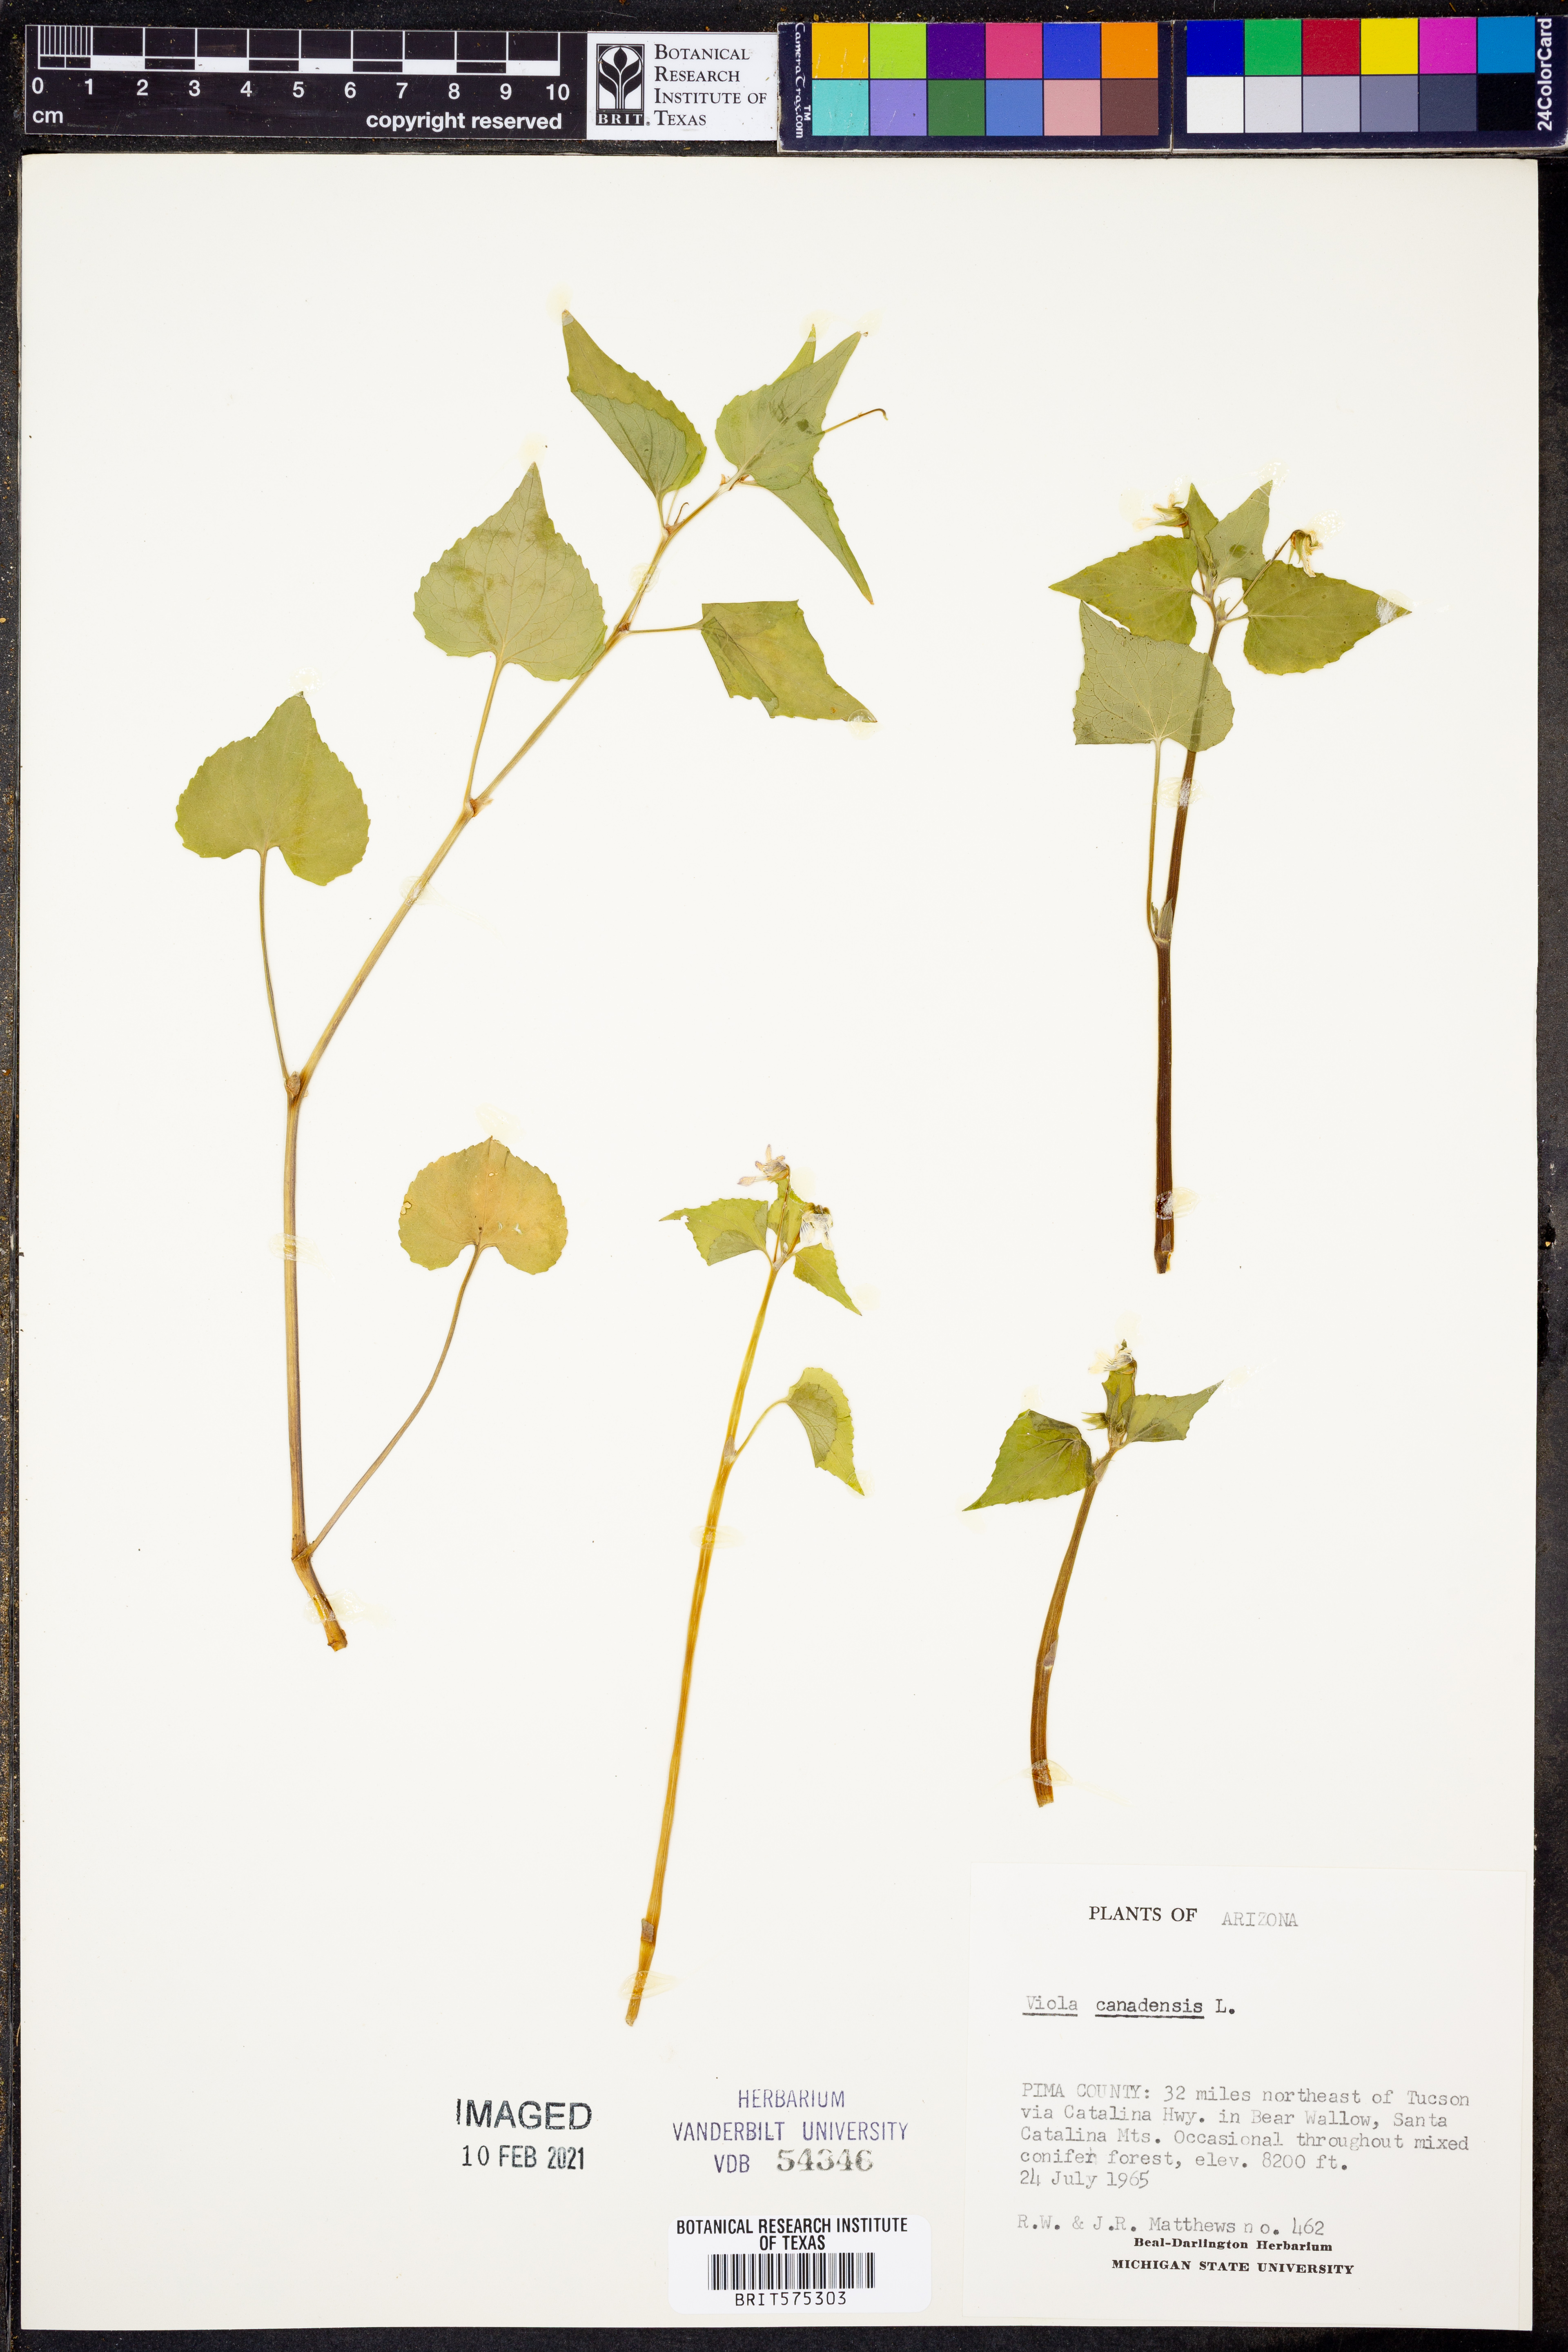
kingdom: Plantae
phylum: Tracheophyta
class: Magnoliopsida
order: Malpighiales
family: Violaceae
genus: Viola
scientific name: Viola canadensis
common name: Canada violet
